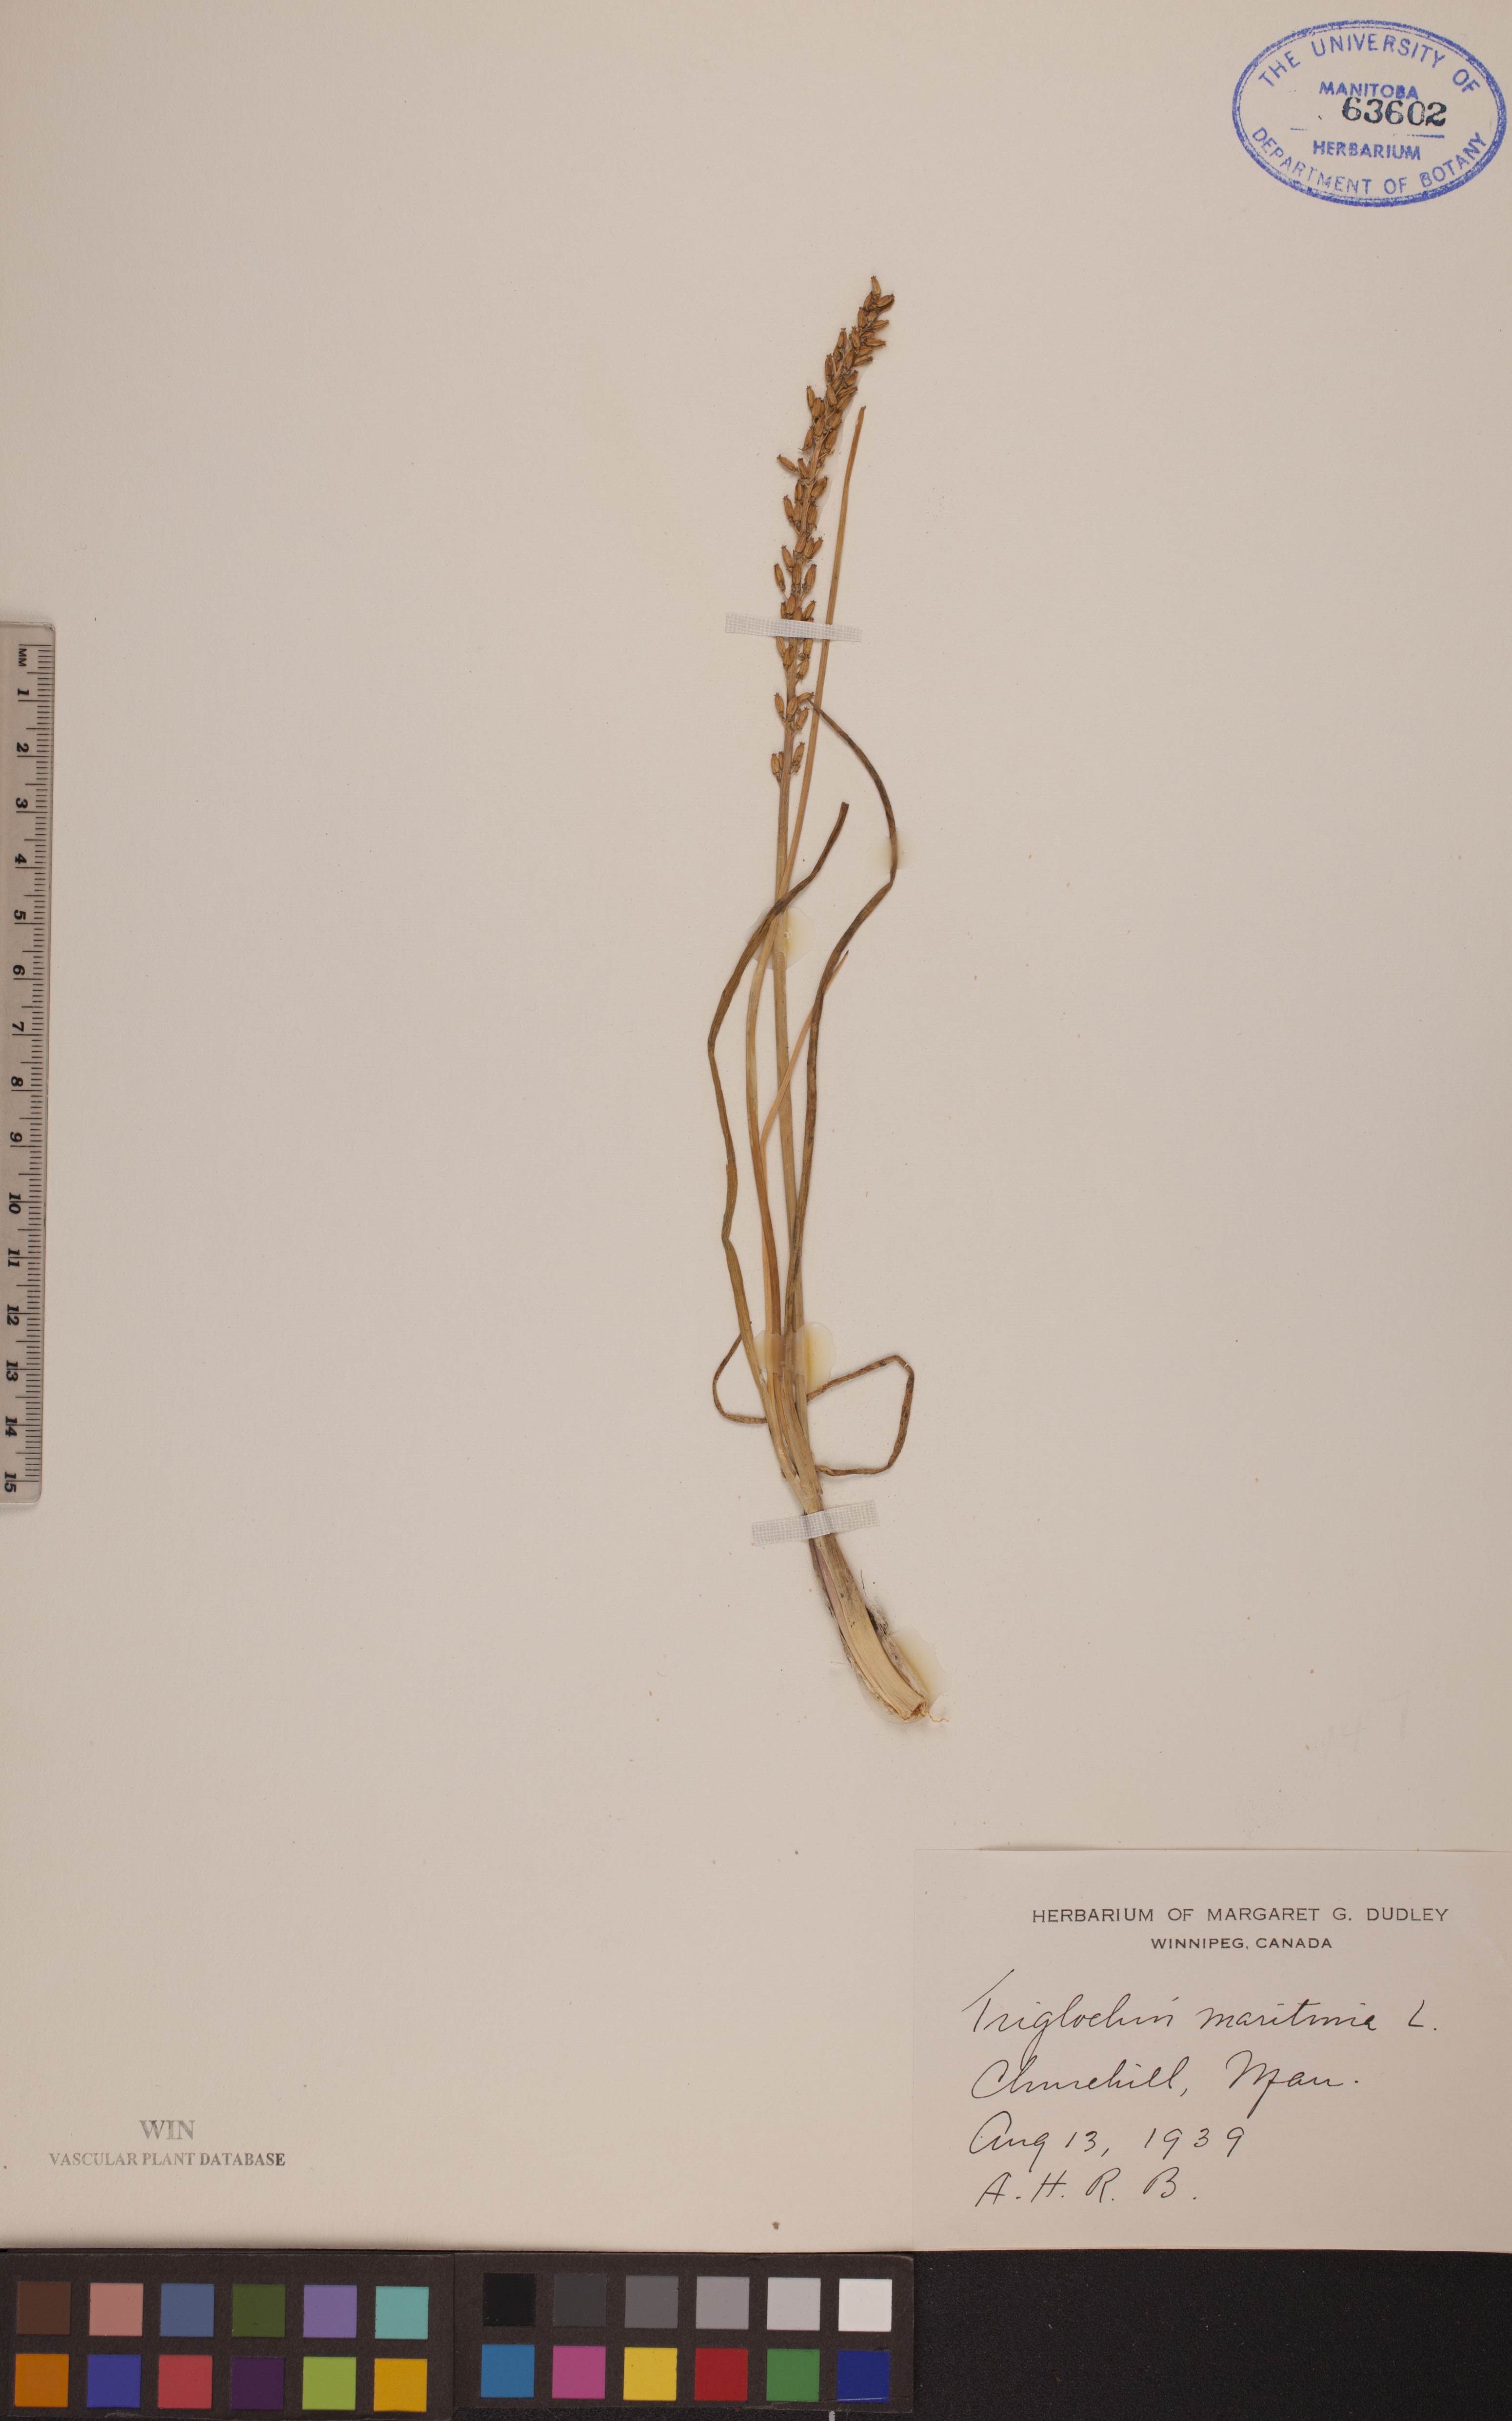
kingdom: Plantae
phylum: Tracheophyta
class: Liliopsida
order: Alismatales
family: Juncaginaceae
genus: Triglochin
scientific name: Triglochin maritima
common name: Sea arrowgrass
